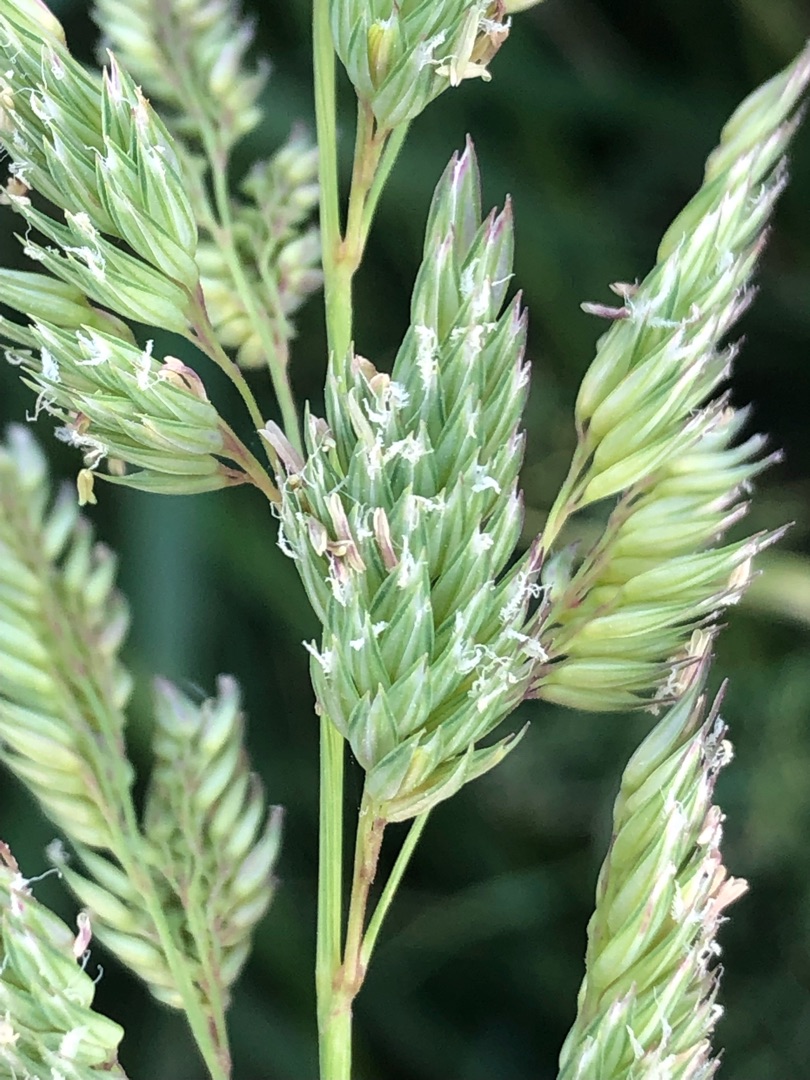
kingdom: Plantae
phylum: Tracheophyta
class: Liliopsida
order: Poales
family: Poaceae
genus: Phalaris
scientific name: Phalaris arundinacea
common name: Rørgræs
